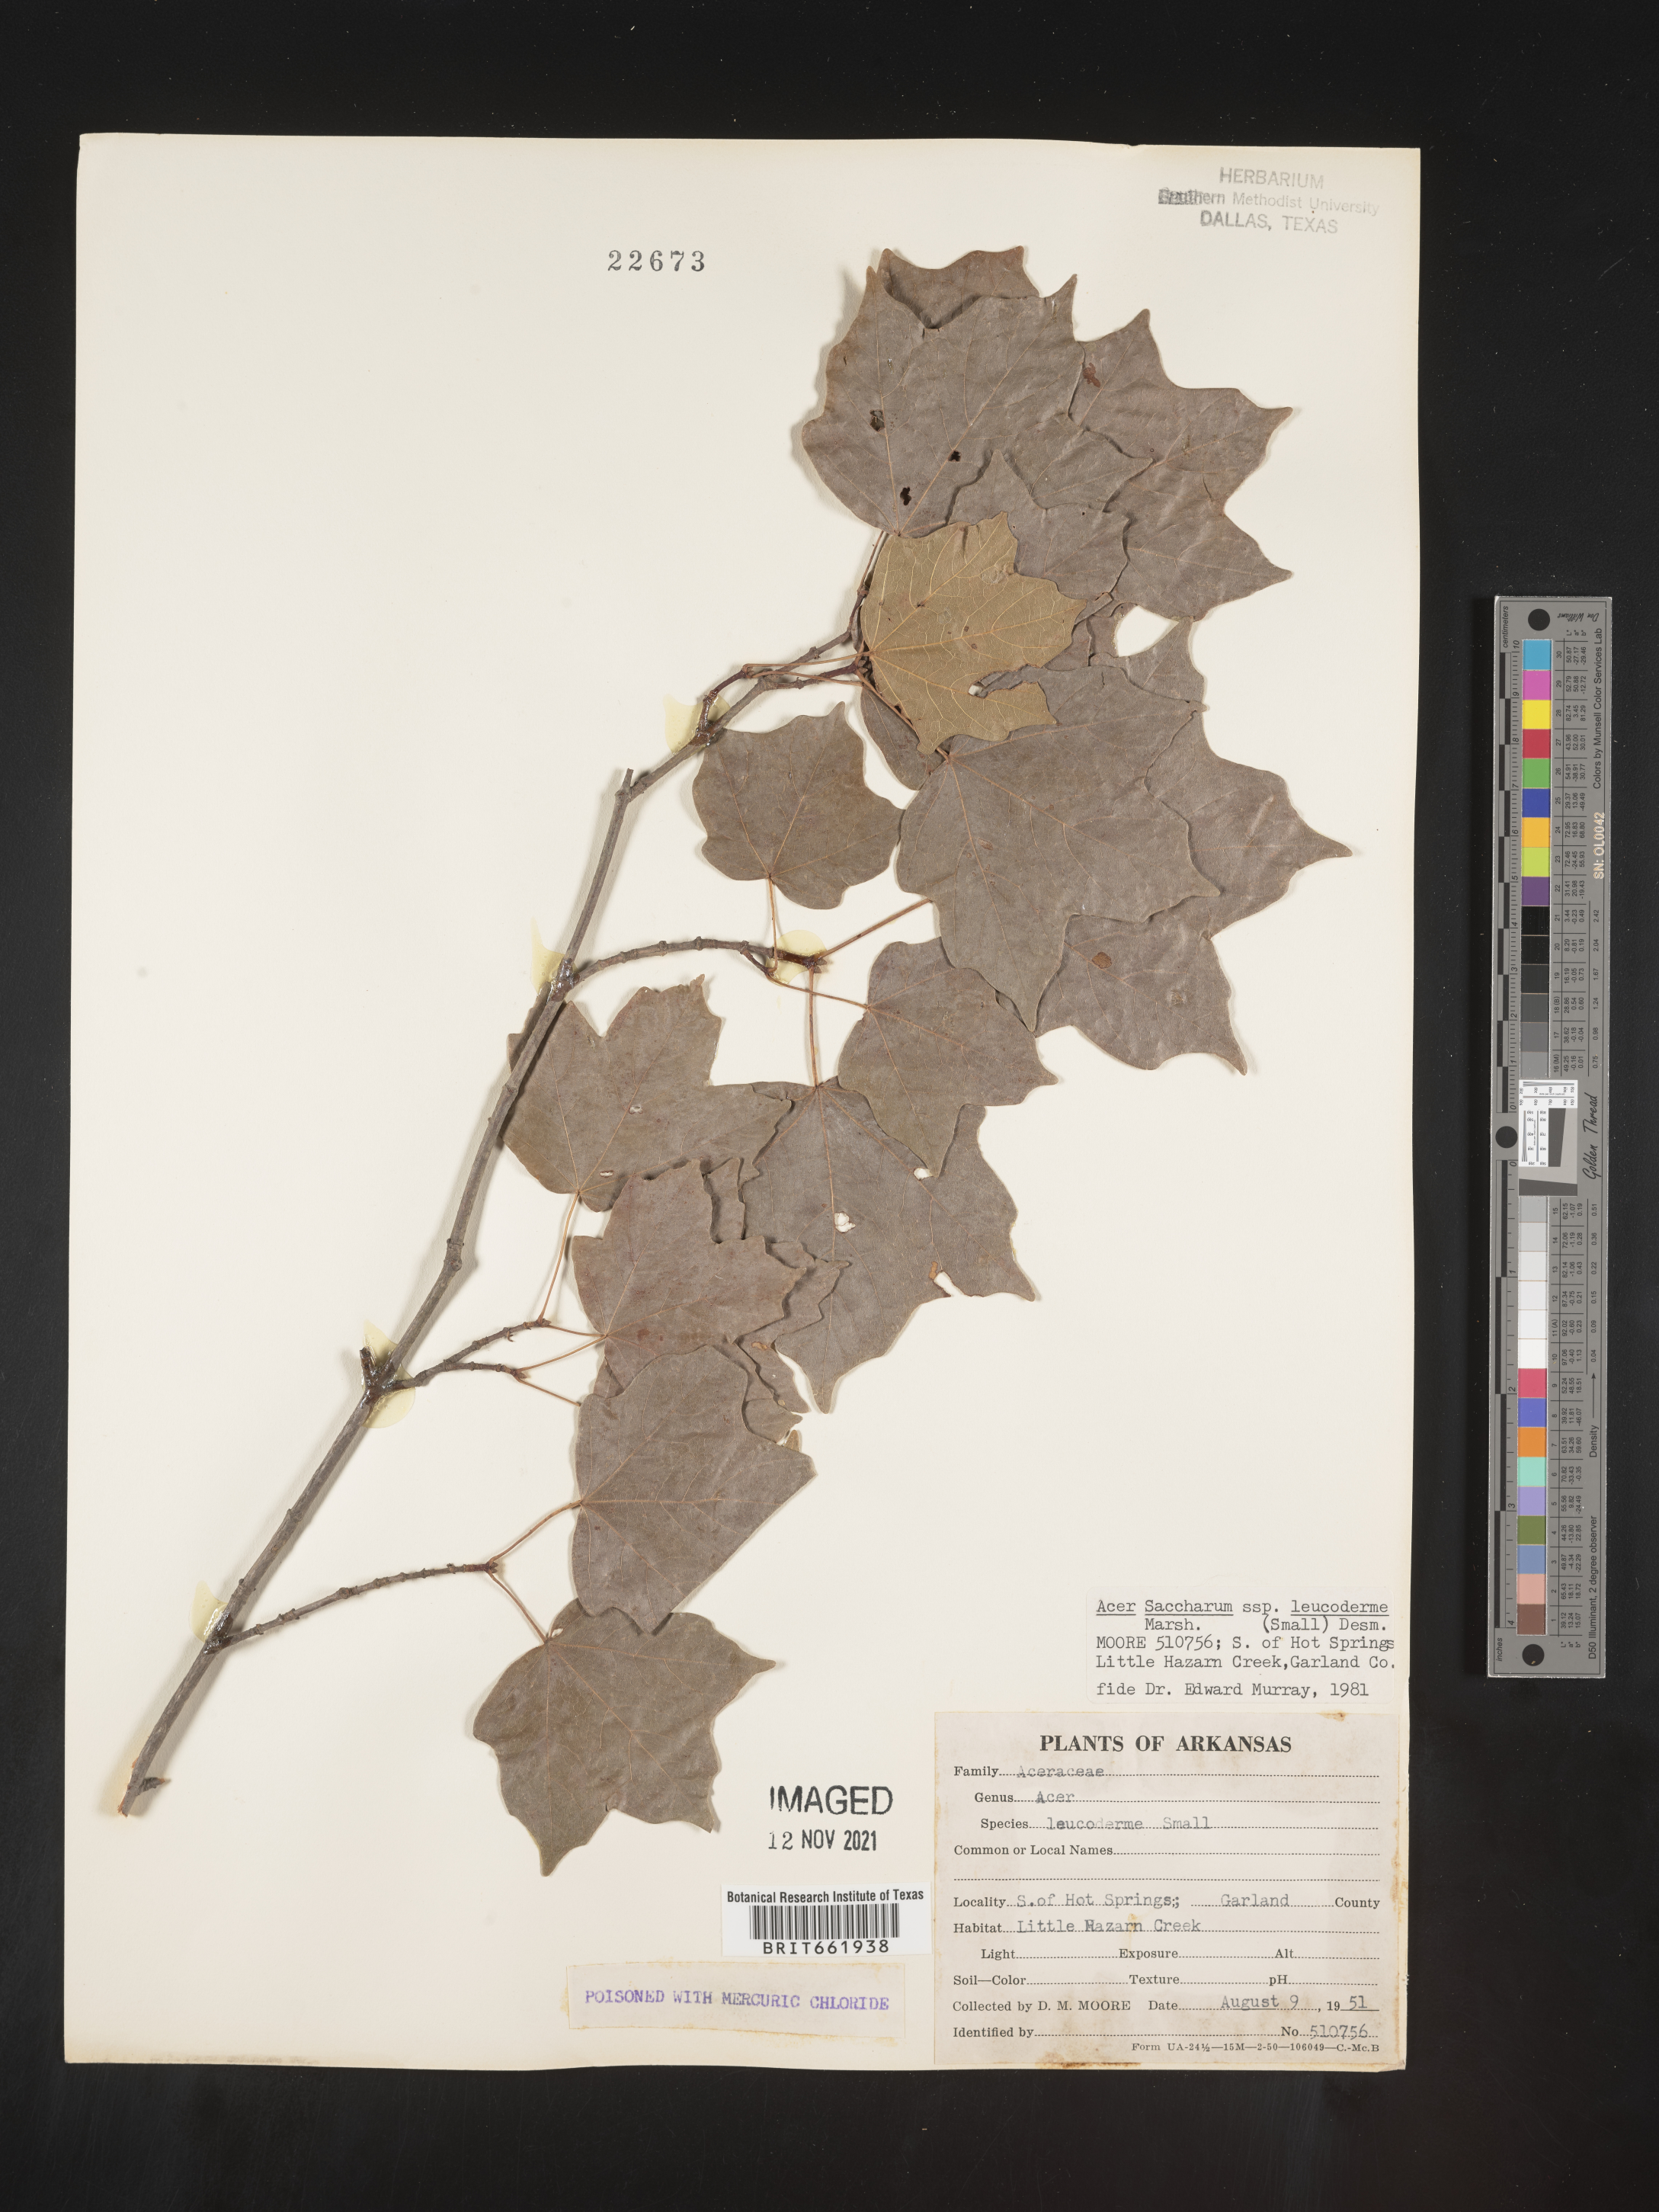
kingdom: Plantae
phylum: Tracheophyta
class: Magnoliopsida
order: Sapindales
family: Sapindaceae
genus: Acer
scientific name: Acer leucoderme
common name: Chalk maple
